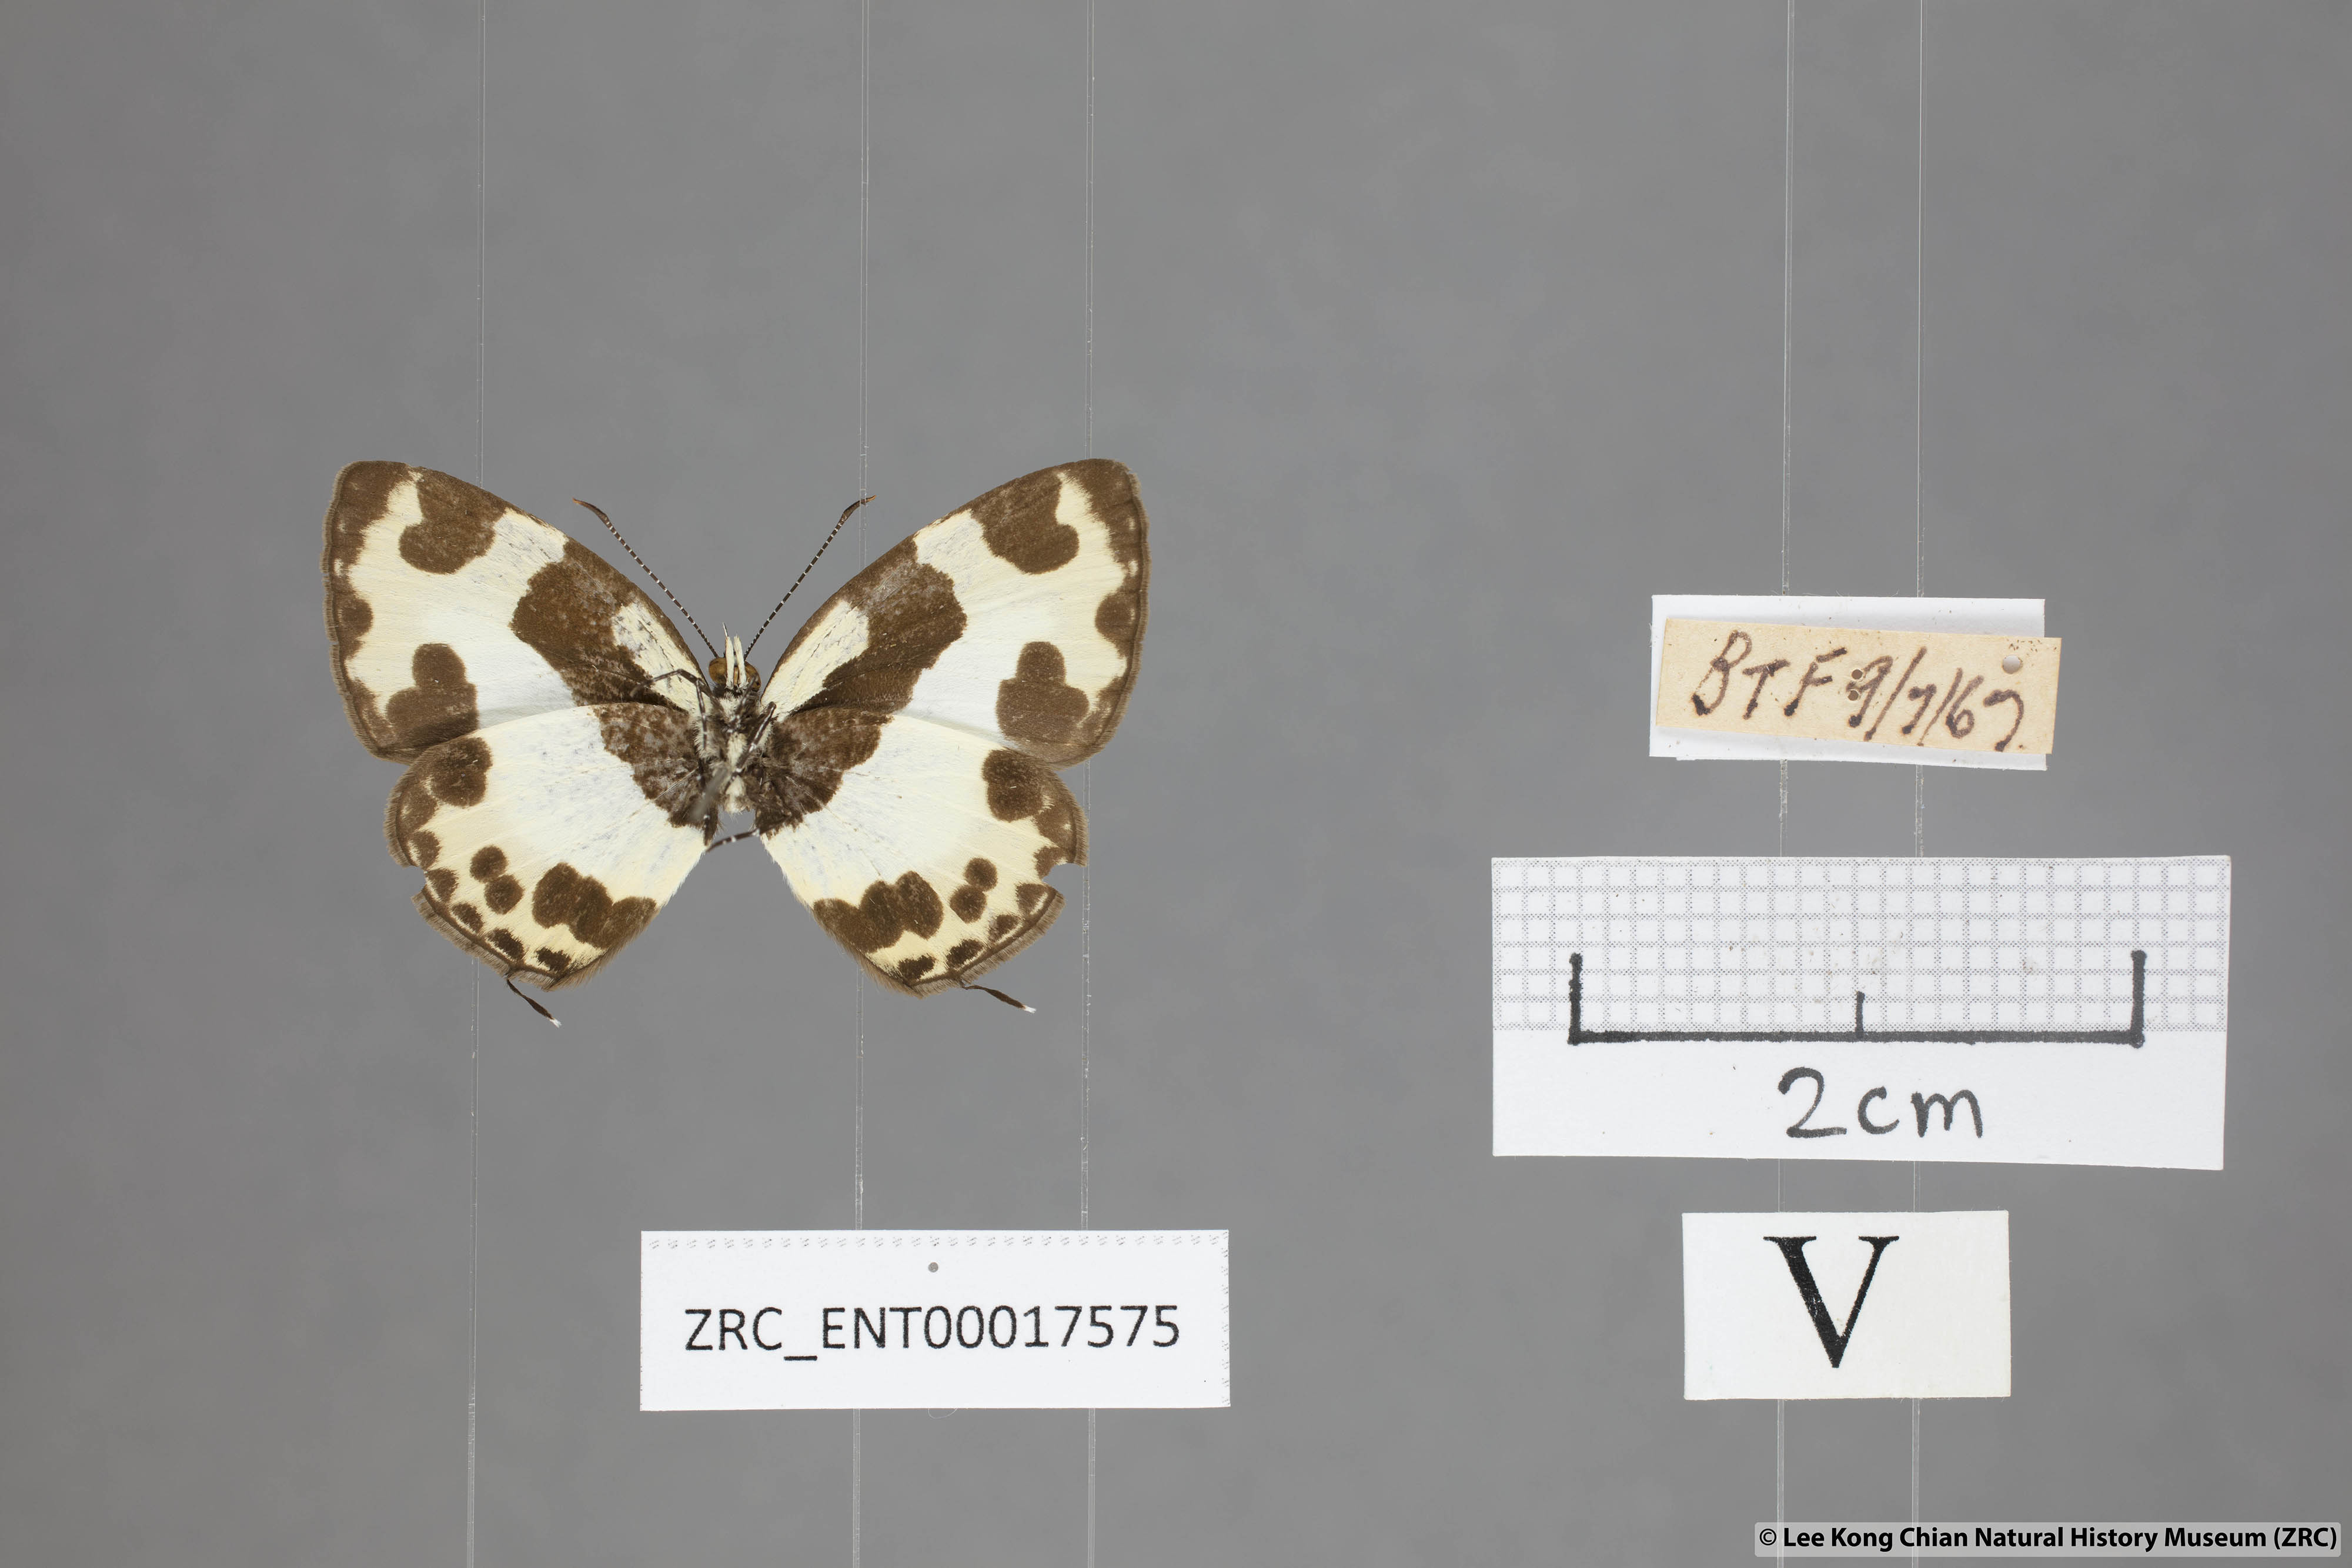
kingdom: Animalia
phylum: Arthropoda
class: Insecta
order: Lepidoptera
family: Lycaenidae
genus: Caleta
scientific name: Caleta elna
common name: Elbowed pierrot
